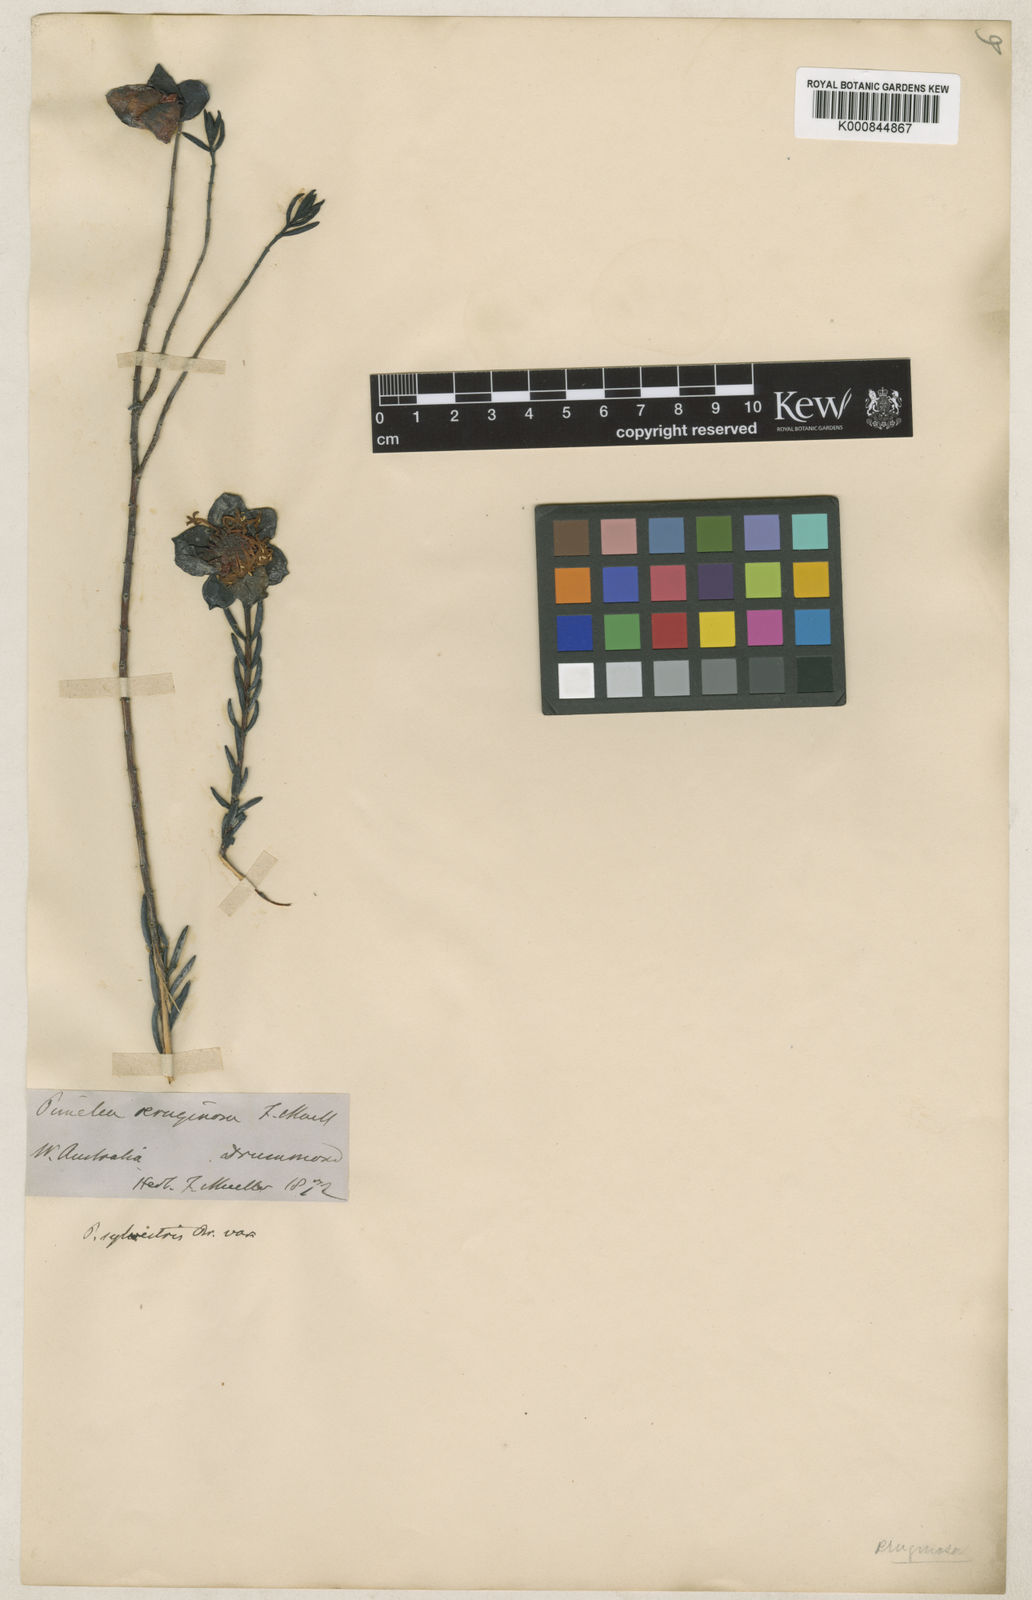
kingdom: Plantae
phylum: Tracheophyta
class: Magnoliopsida
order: Malvales
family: Thymelaeaceae
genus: Pimelea
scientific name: Pimelea aeruginosa
